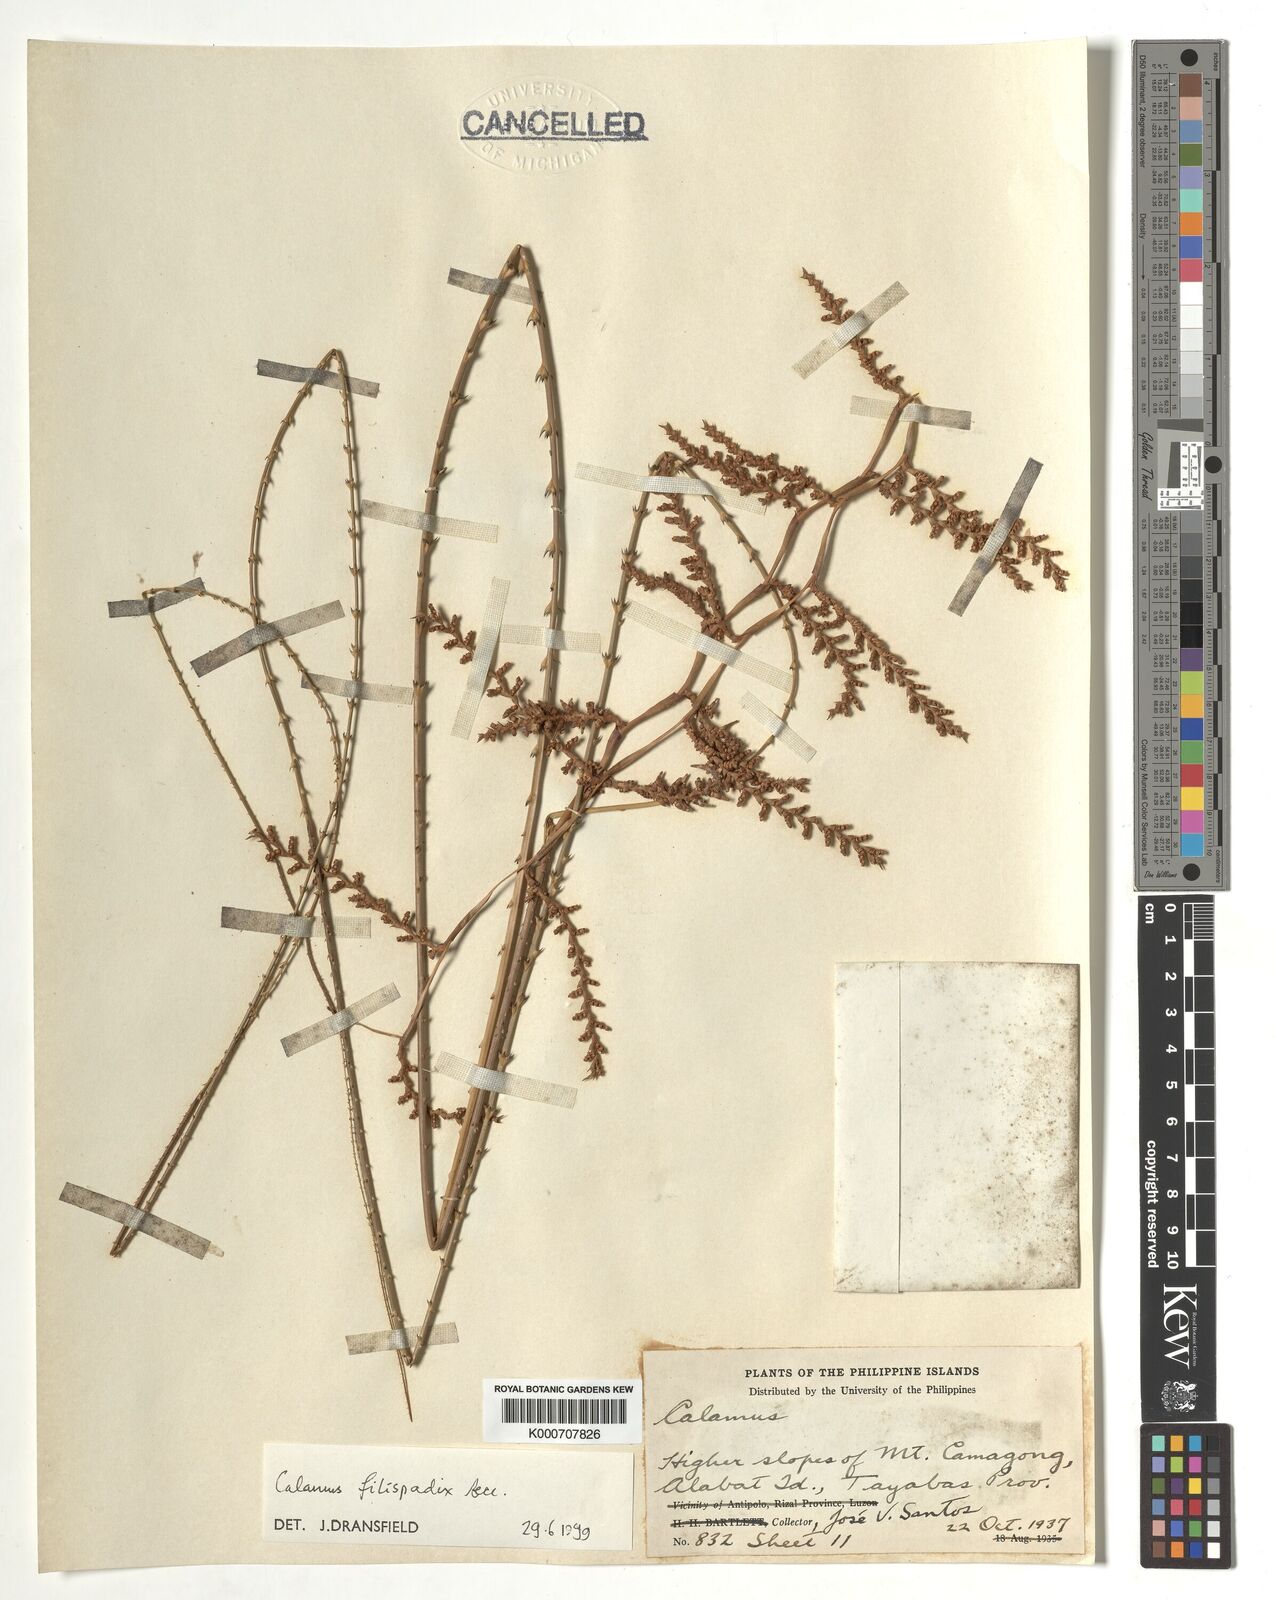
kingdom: Plantae
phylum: Tracheophyta
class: Liliopsida
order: Arecales
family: Arecaceae
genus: Calamus
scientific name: Calamus filispadix
